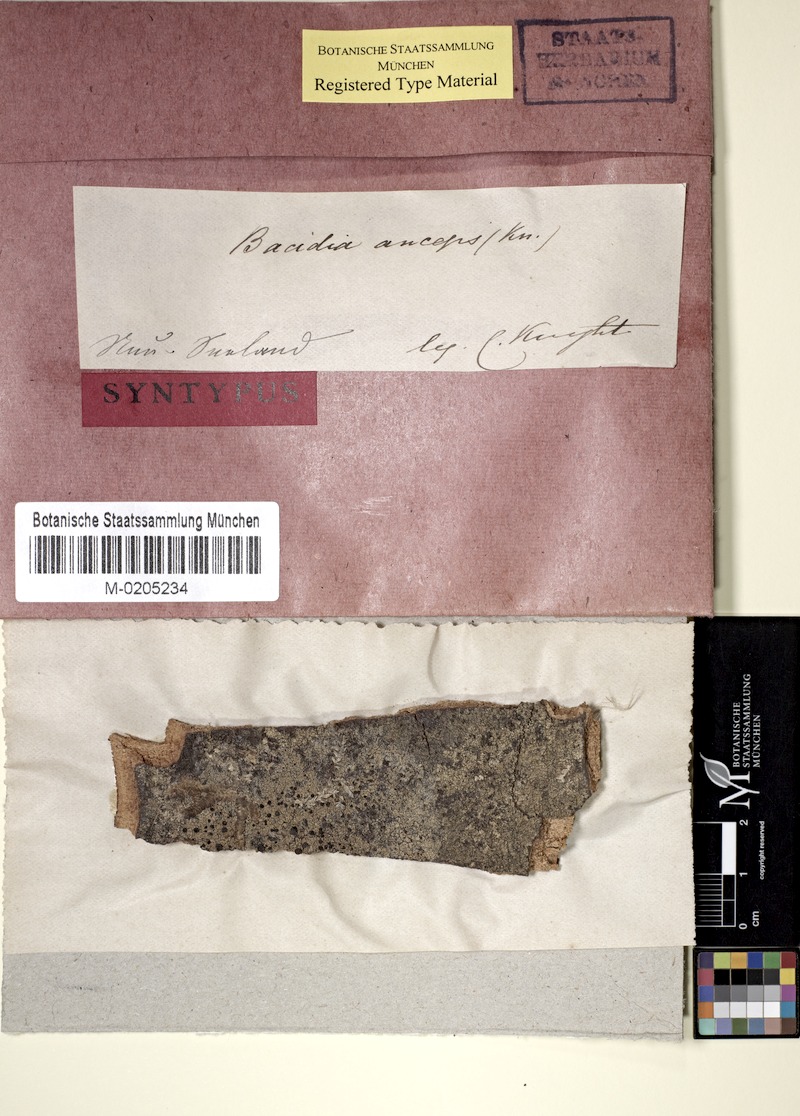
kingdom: Fungi
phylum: Ascomycota
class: Lecanoromycetes
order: Lecanorales
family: Ramalinaceae
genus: Bacidia
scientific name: Bacidia laurocerasi
